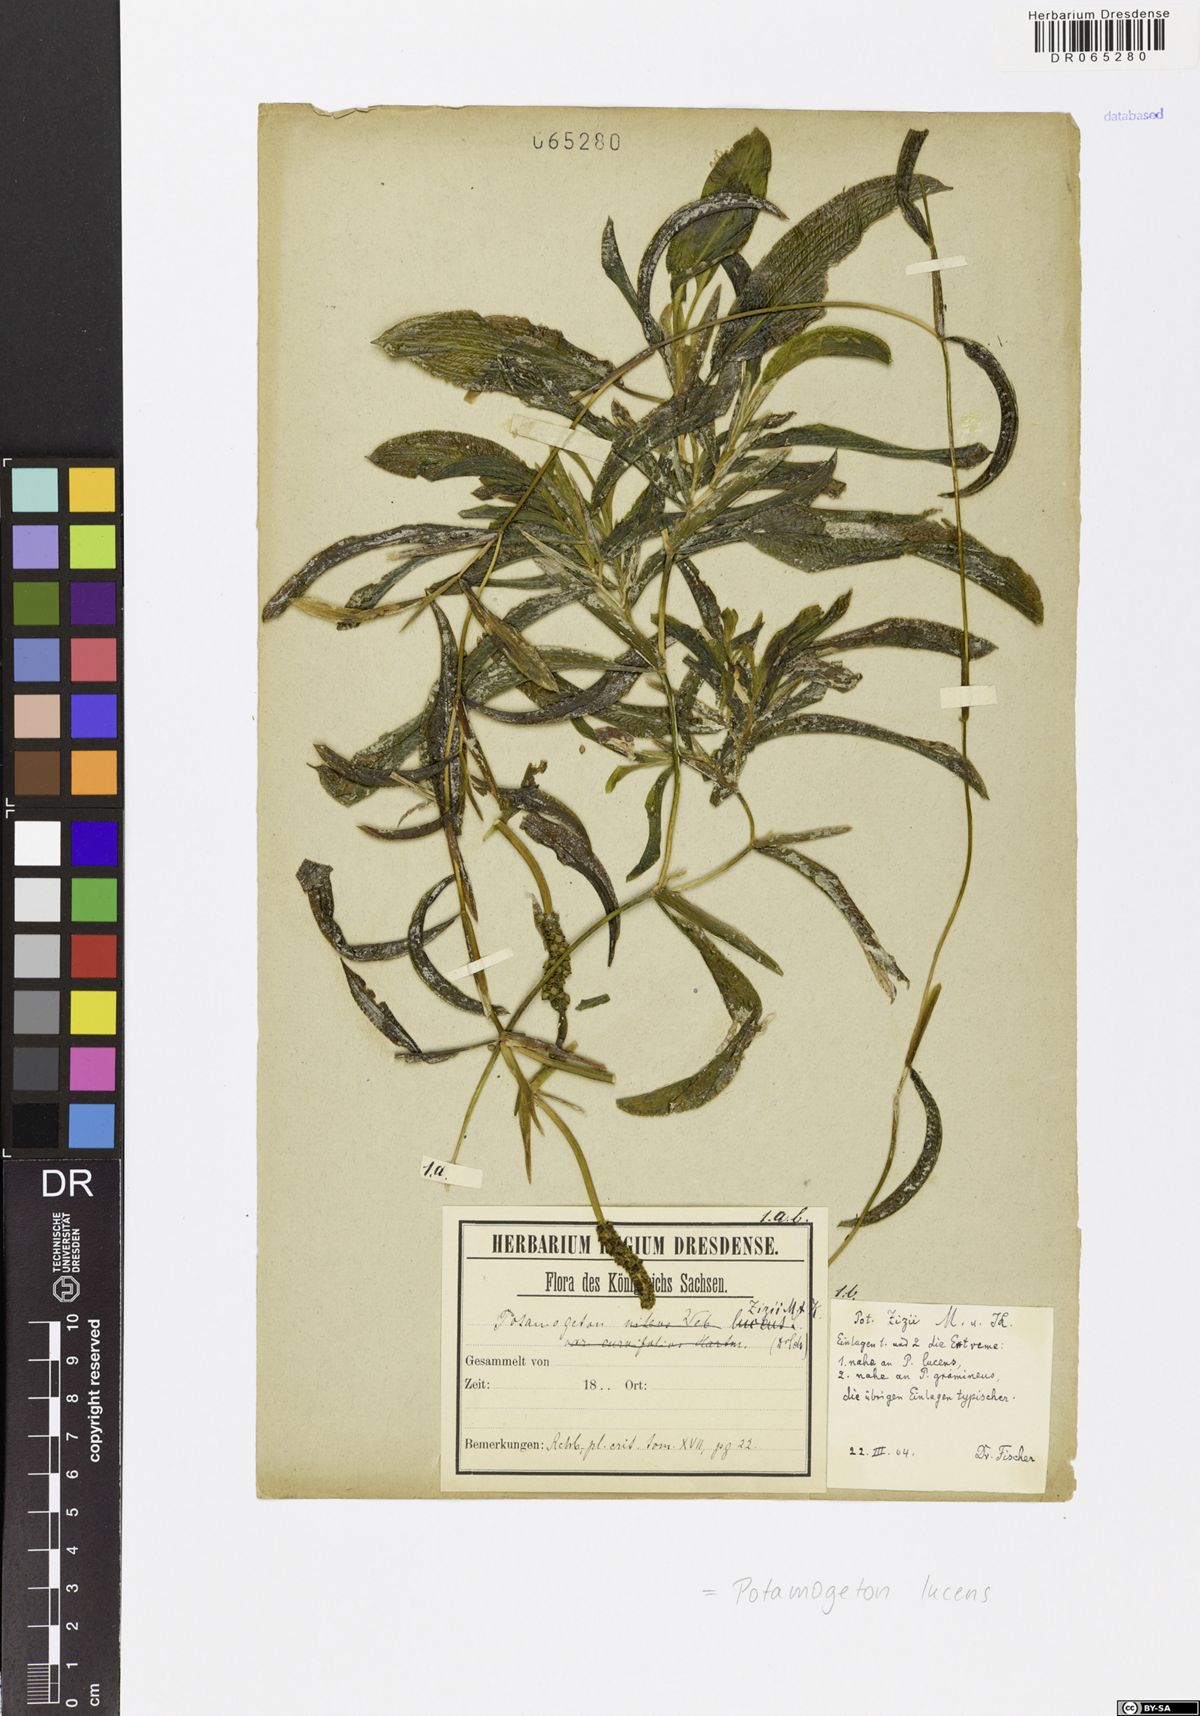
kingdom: Plantae
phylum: Tracheophyta
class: Liliopsida
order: Alismatales
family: Potamogetonaceae
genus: Potamogeton
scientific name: Potamogeton lucens
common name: Shining pondweed
